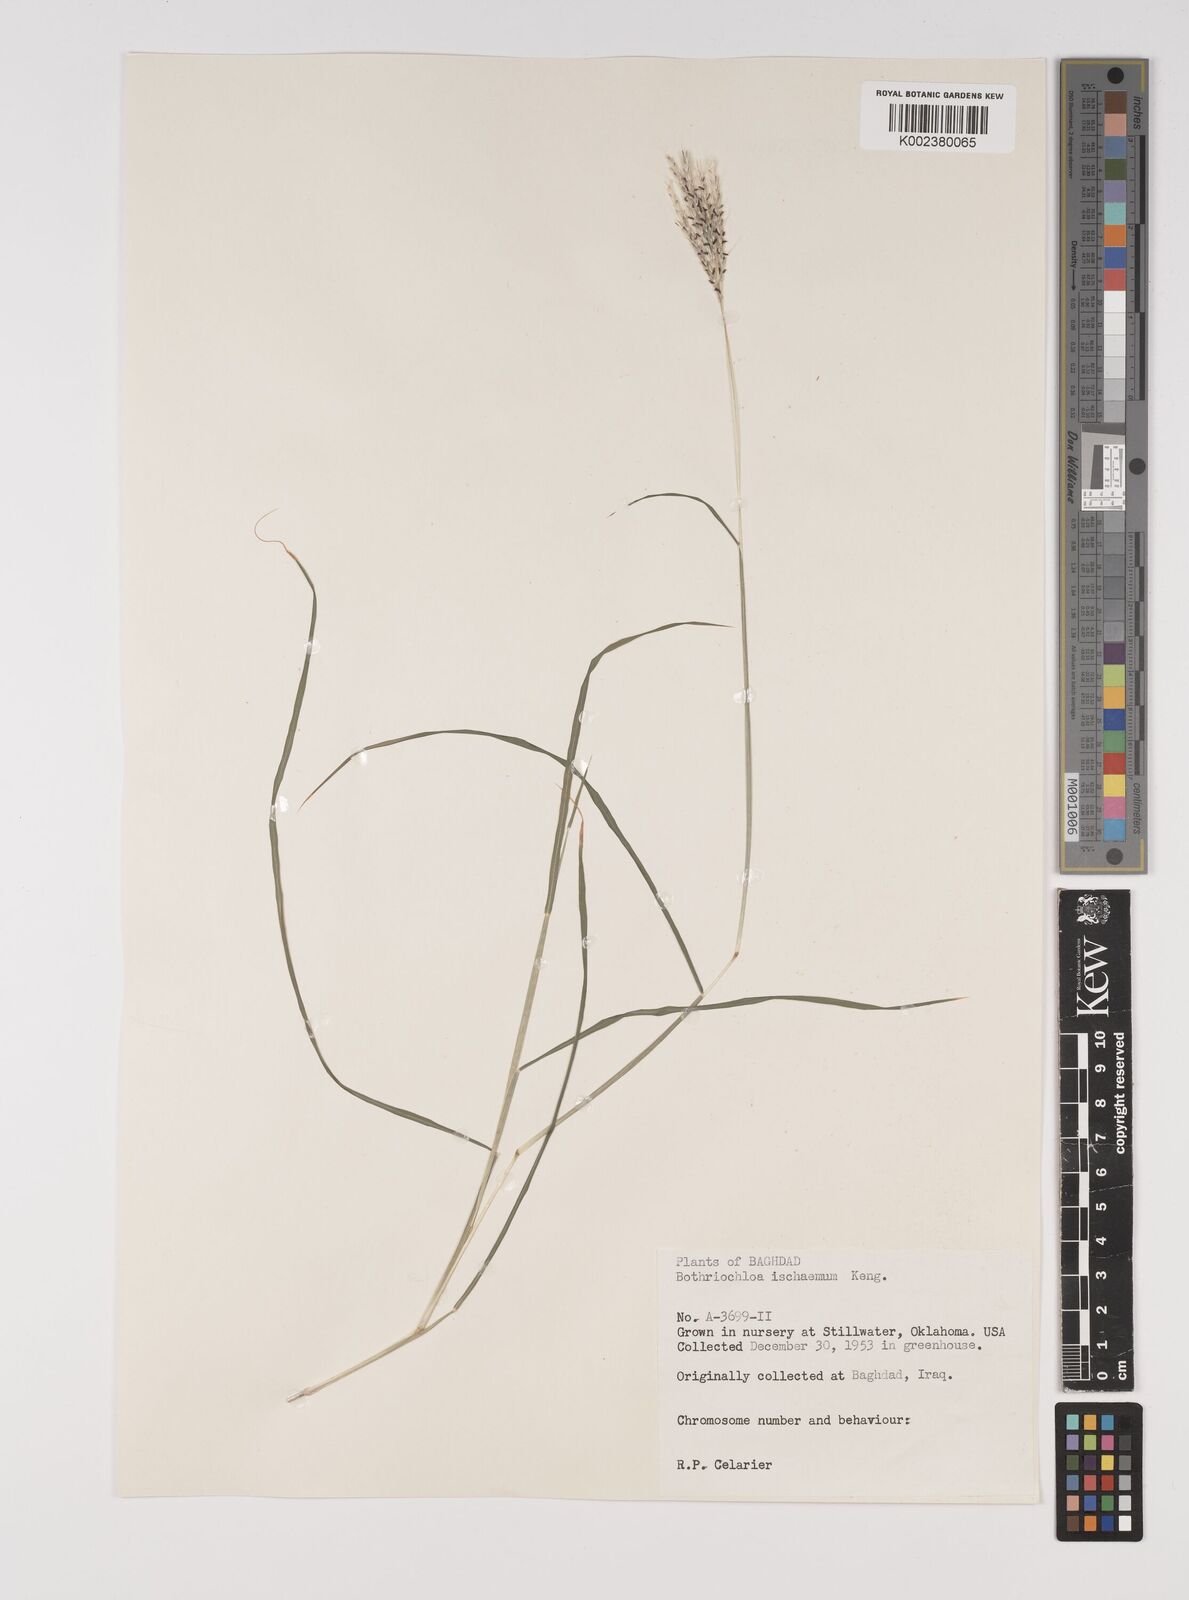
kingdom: Plantae
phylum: Tracheophyta
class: Liliopsida
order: Poales
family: Poaceae
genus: Bothriochloa
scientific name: Bothriochloa ischaemum
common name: Yellow bluestem
